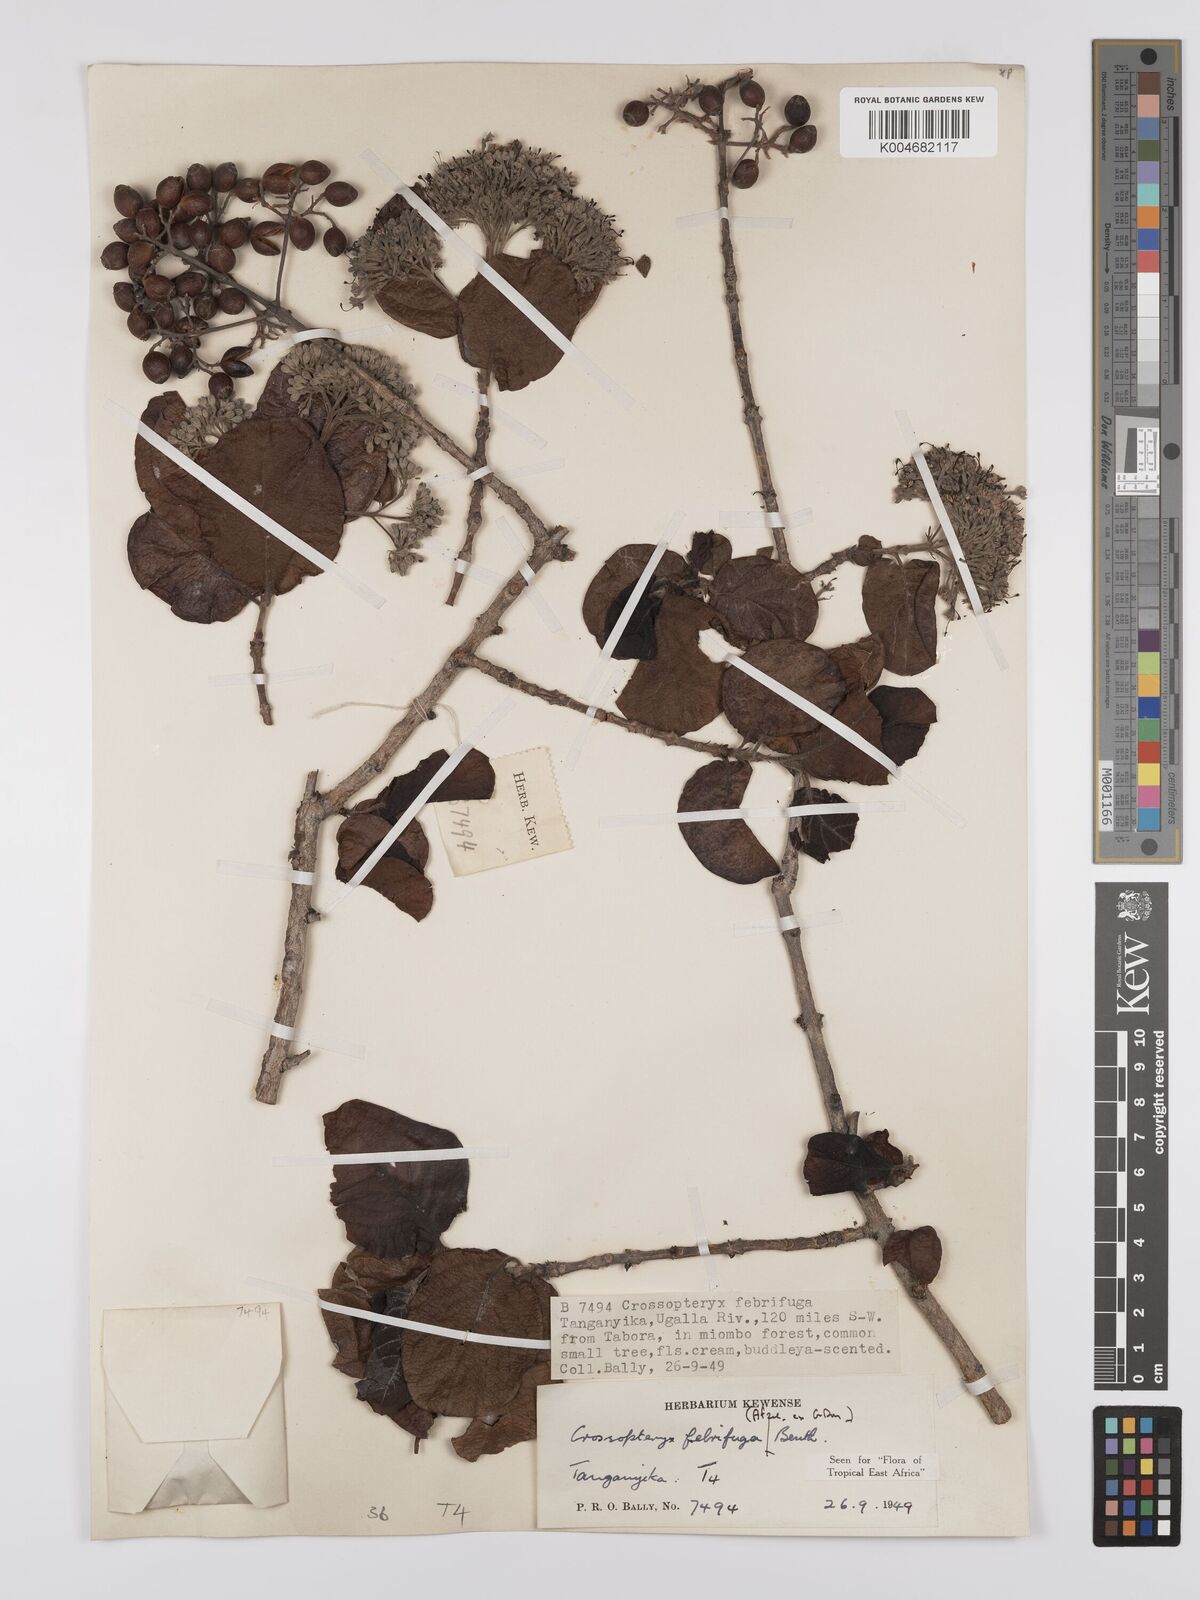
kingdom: Plantae
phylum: Tracheophyta
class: Magnoliopsida
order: Gentianales
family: Rubiaceae
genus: Crossopteryx
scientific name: Crossopteryx febrifuga
